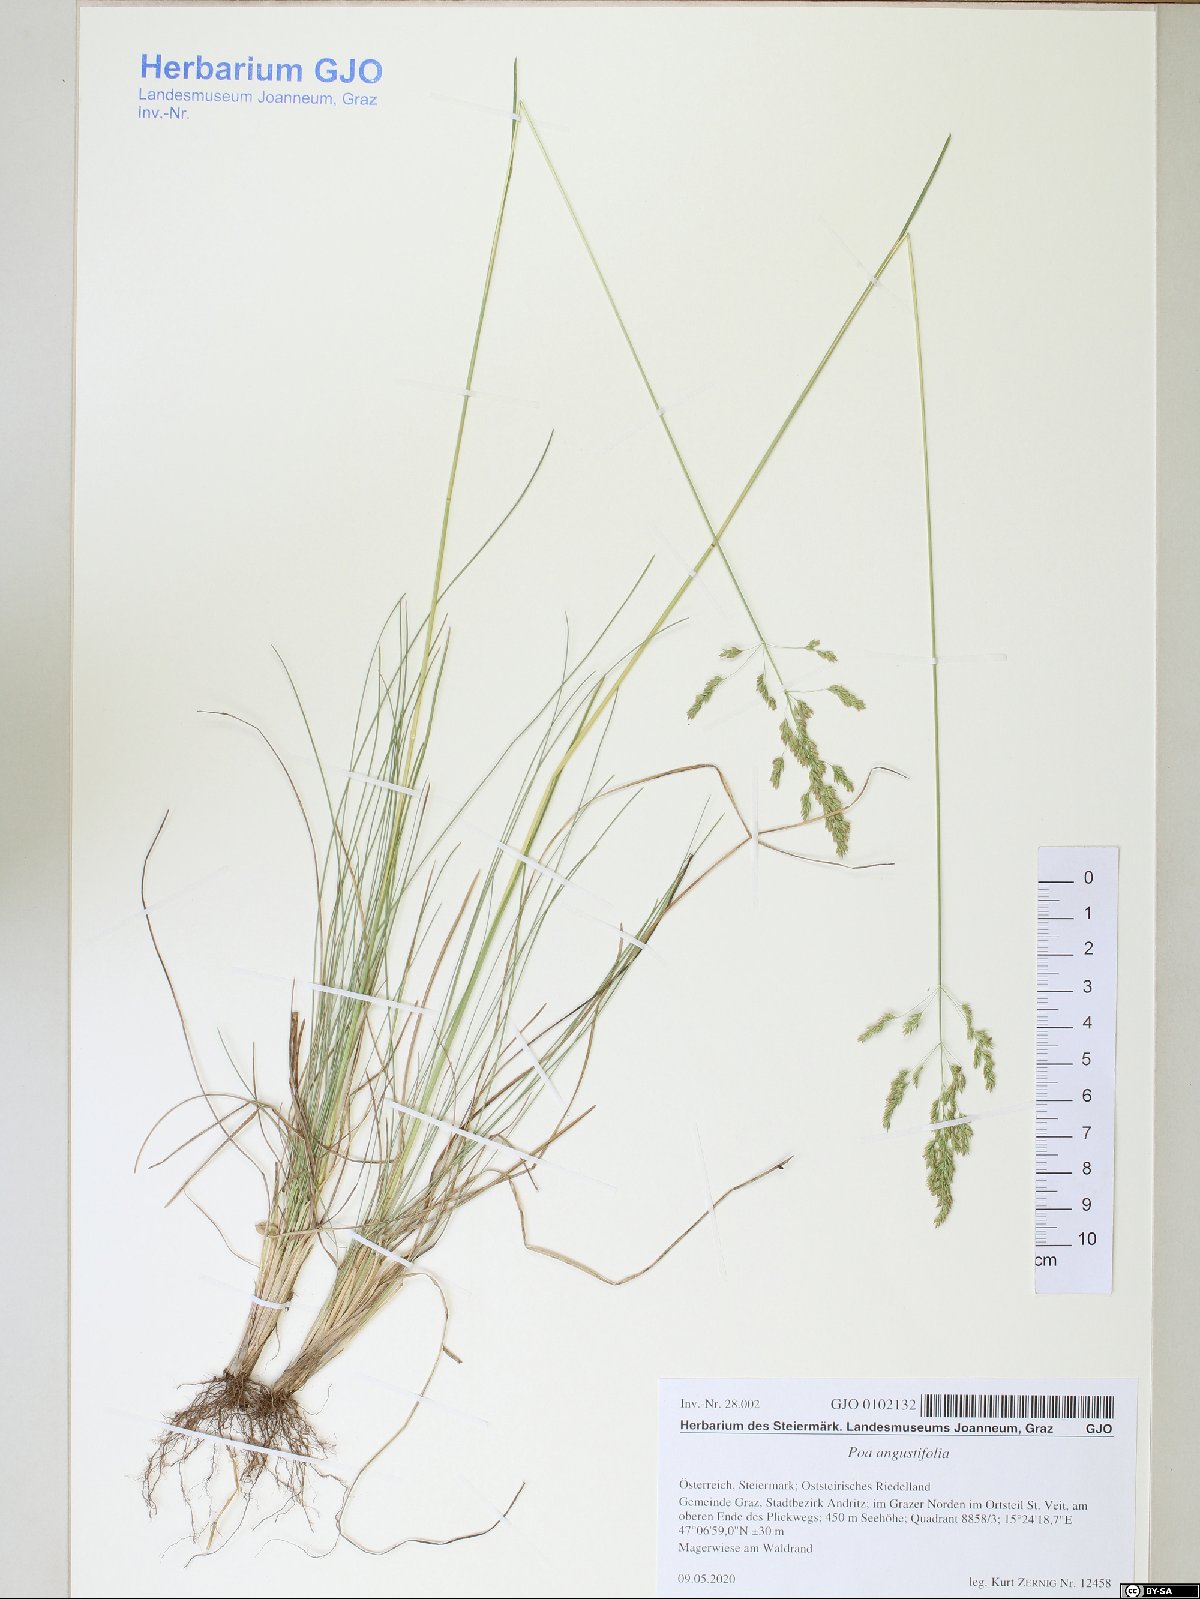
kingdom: Plantae
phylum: Tracheophyta
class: Liliopsida
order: Poales
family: Poaceae
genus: Poa
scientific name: Poa angustifolia
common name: Narrow-leaved meadow-grass
